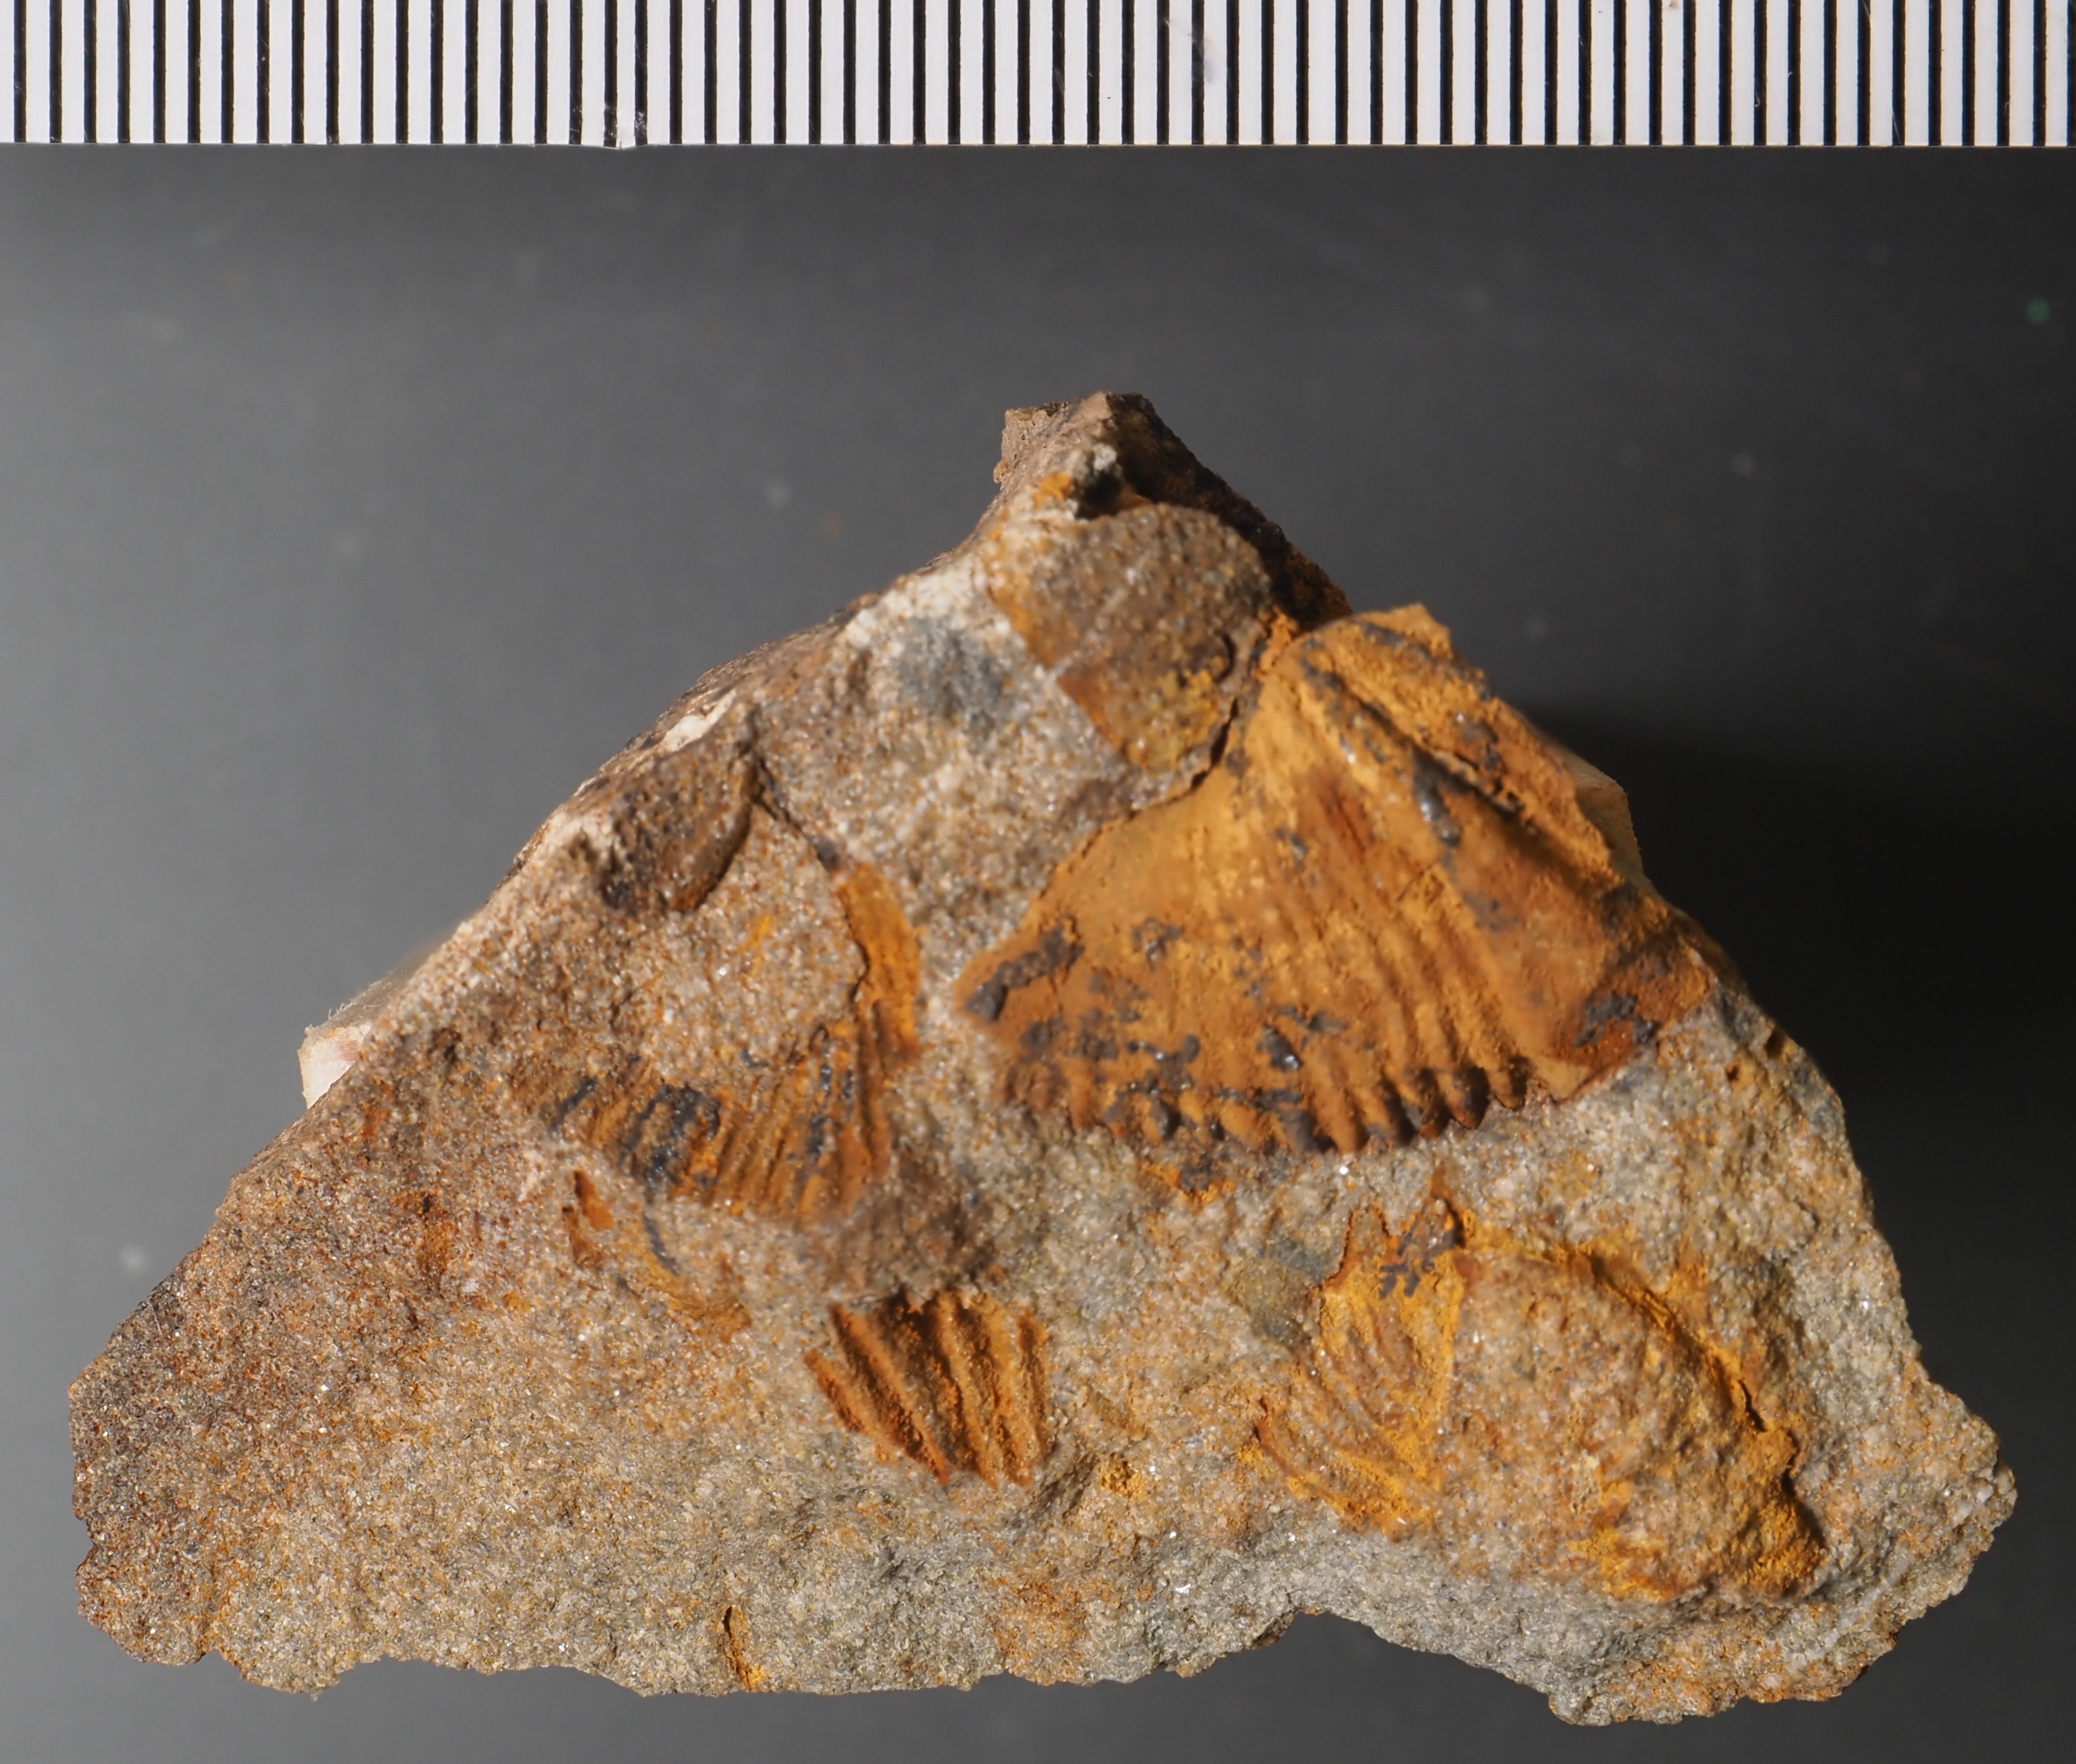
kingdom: Animalia
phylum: Arthropoda
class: Trilobita
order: Phacopida
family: Homalonotidae
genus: Scabrella
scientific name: Scabrella
